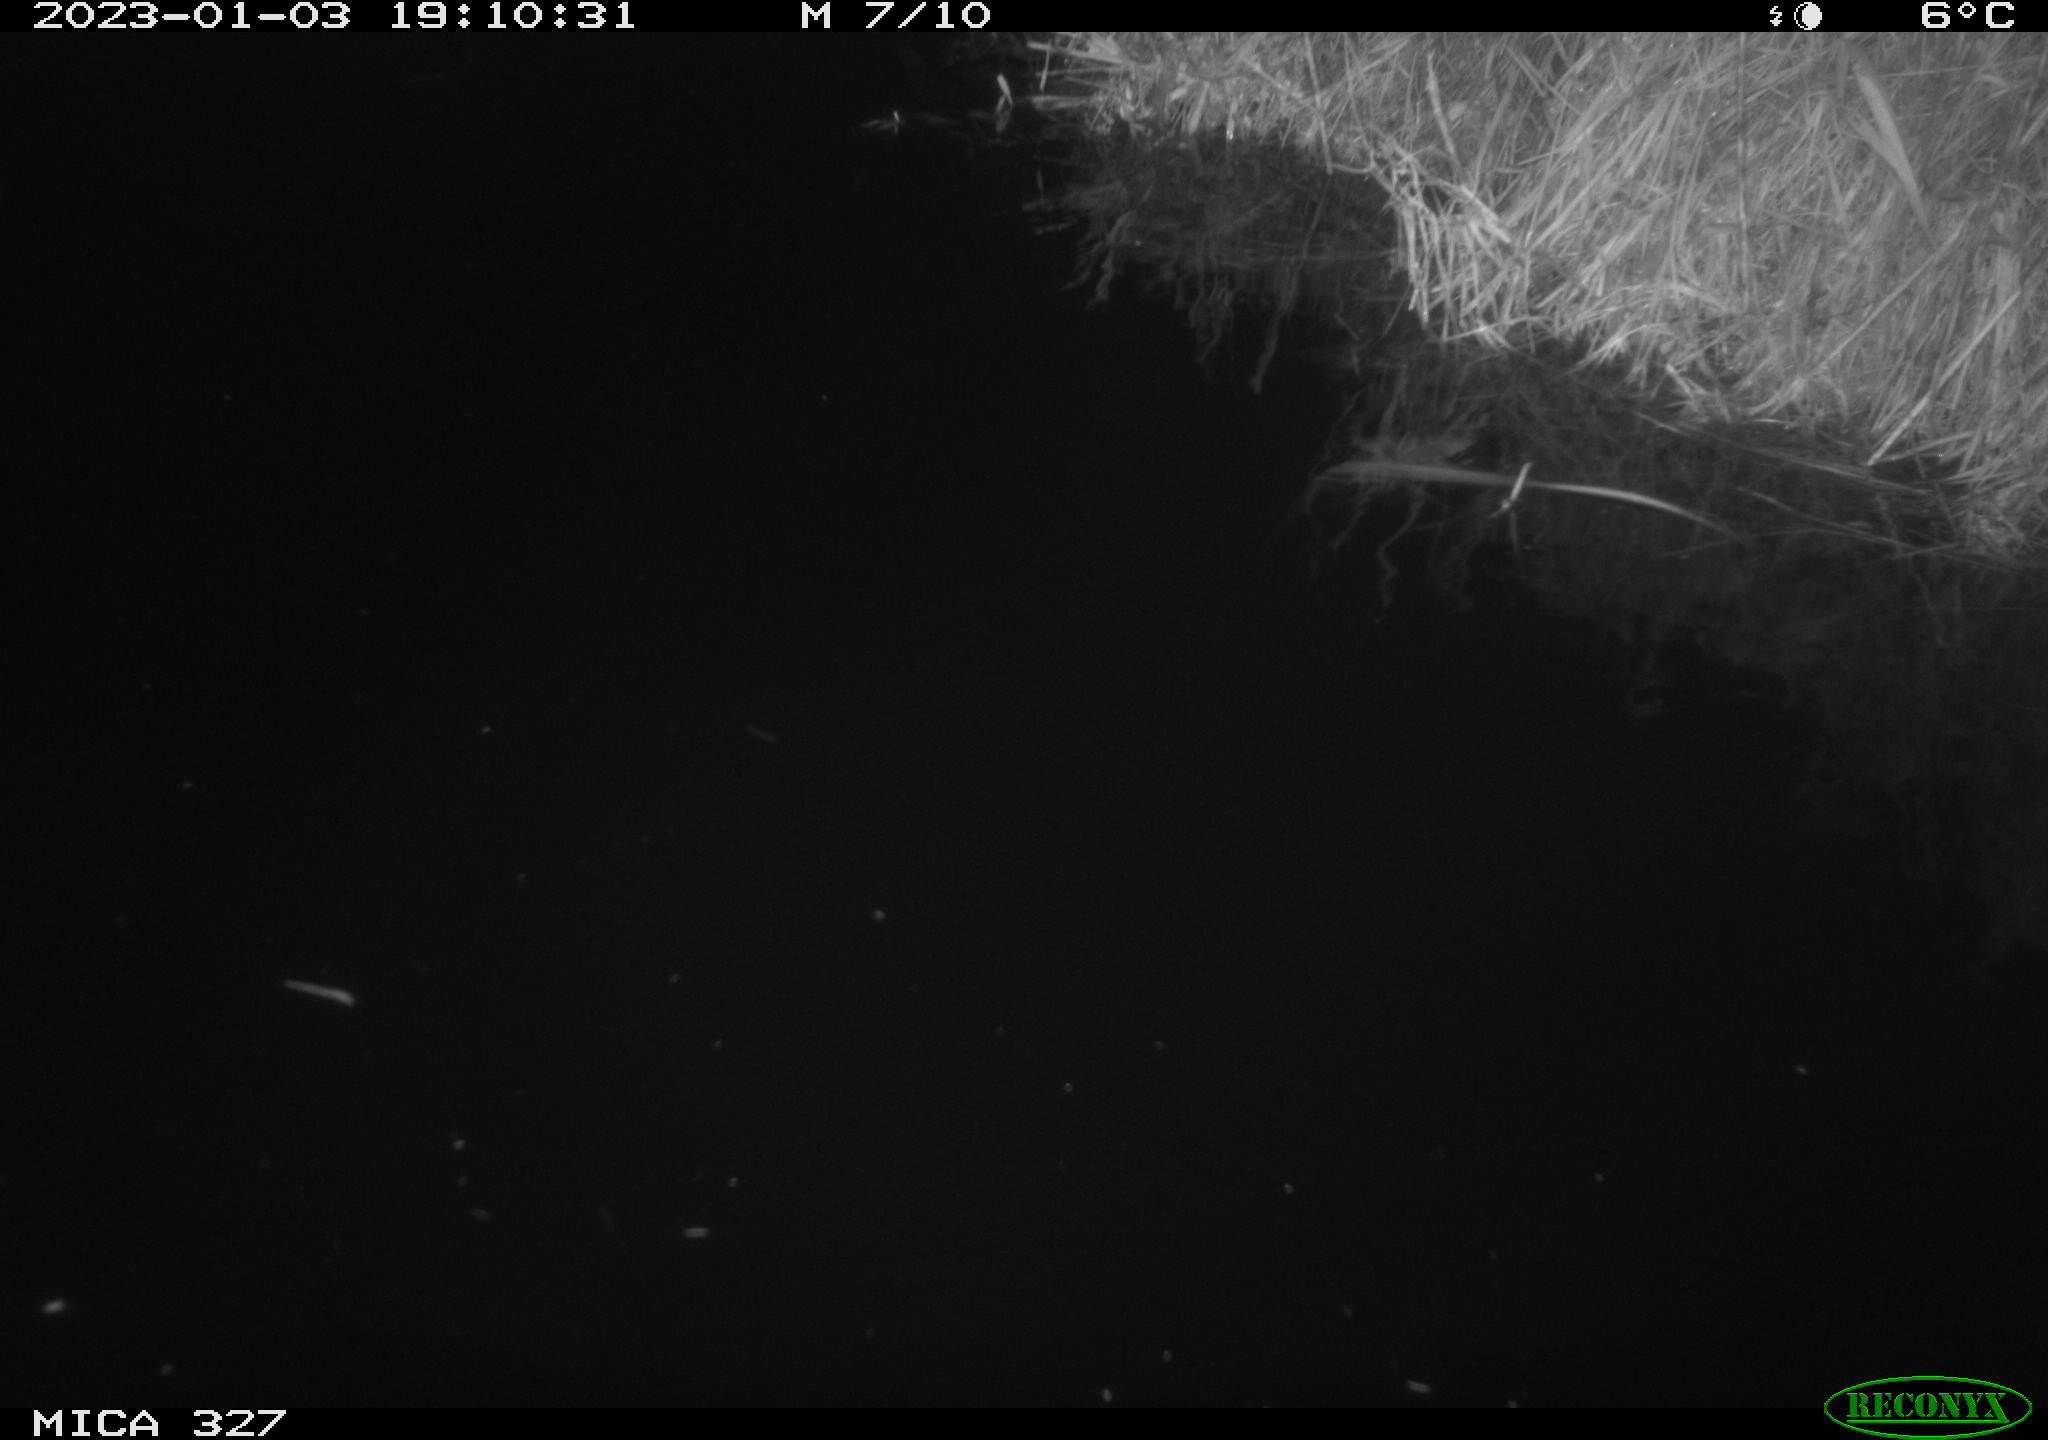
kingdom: Animalia
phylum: Chordata
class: Mammalia
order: Carnivora
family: Mustelidae
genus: Lutra
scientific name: Lutra lutra
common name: European otter
